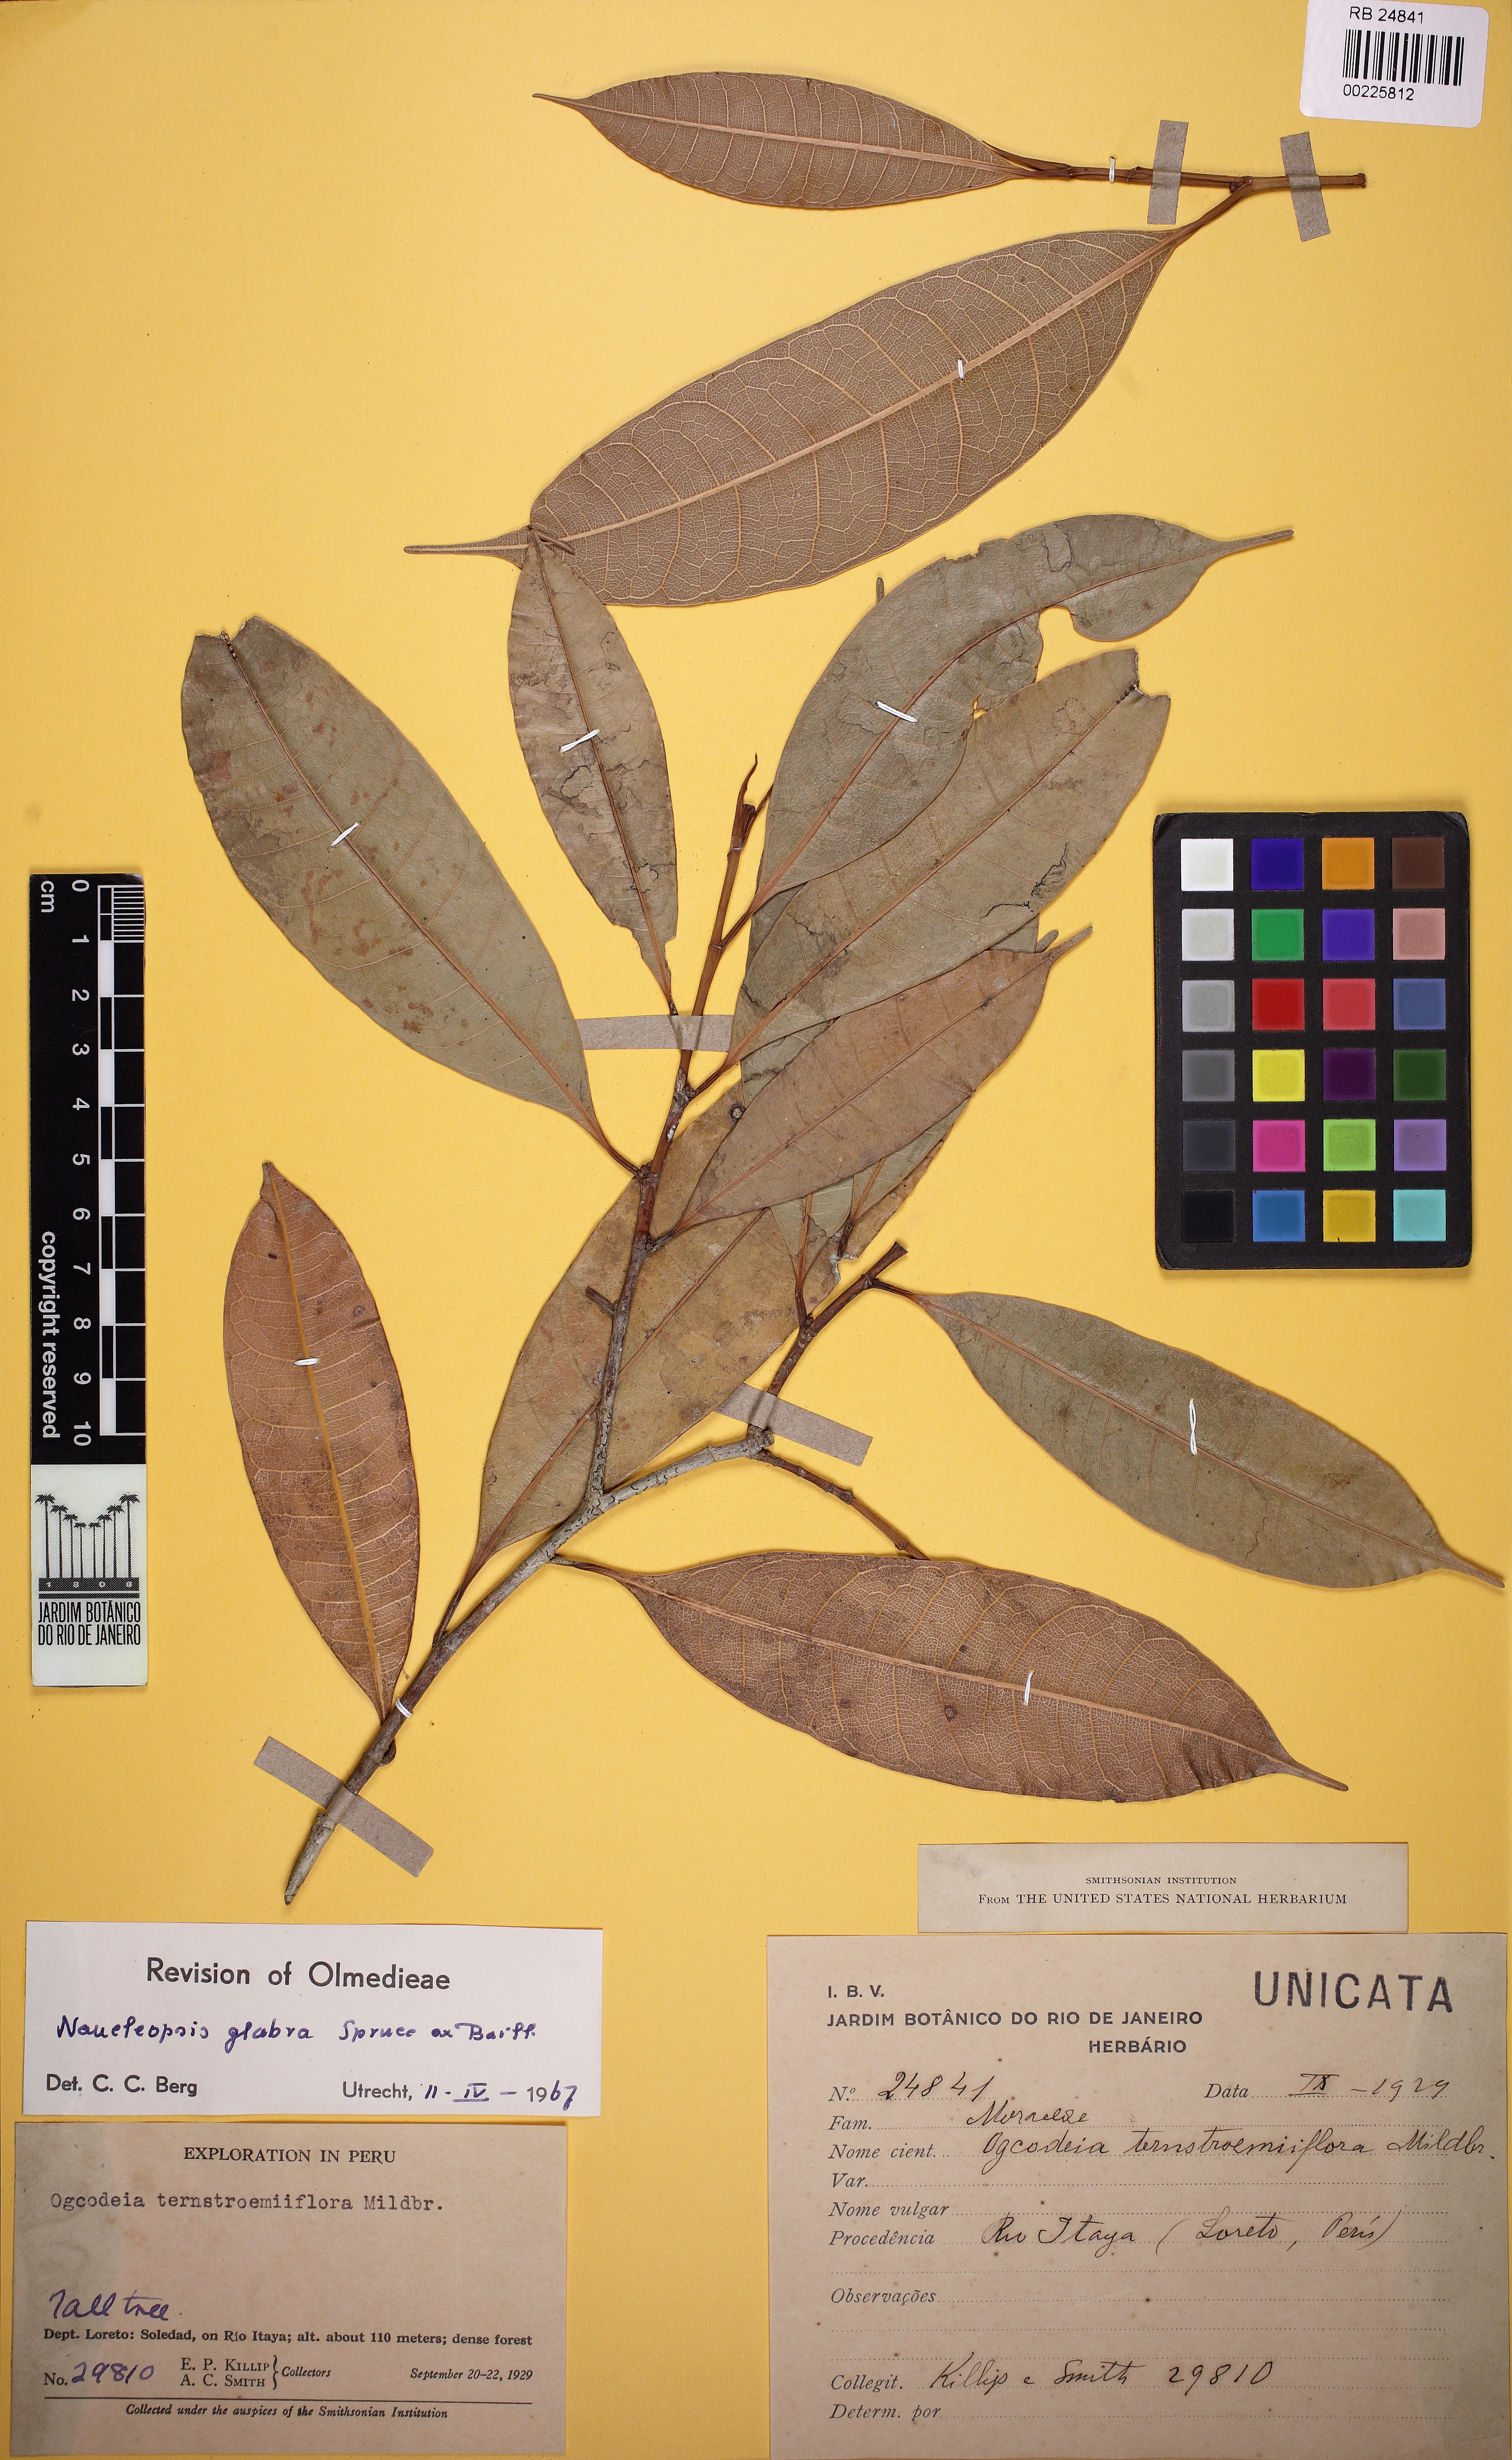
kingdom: Plantae
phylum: Tracheophyta
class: Magnoliopsida
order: Rosales
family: Moraceae
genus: Naucleopsis
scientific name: Naucleopsis glabra
